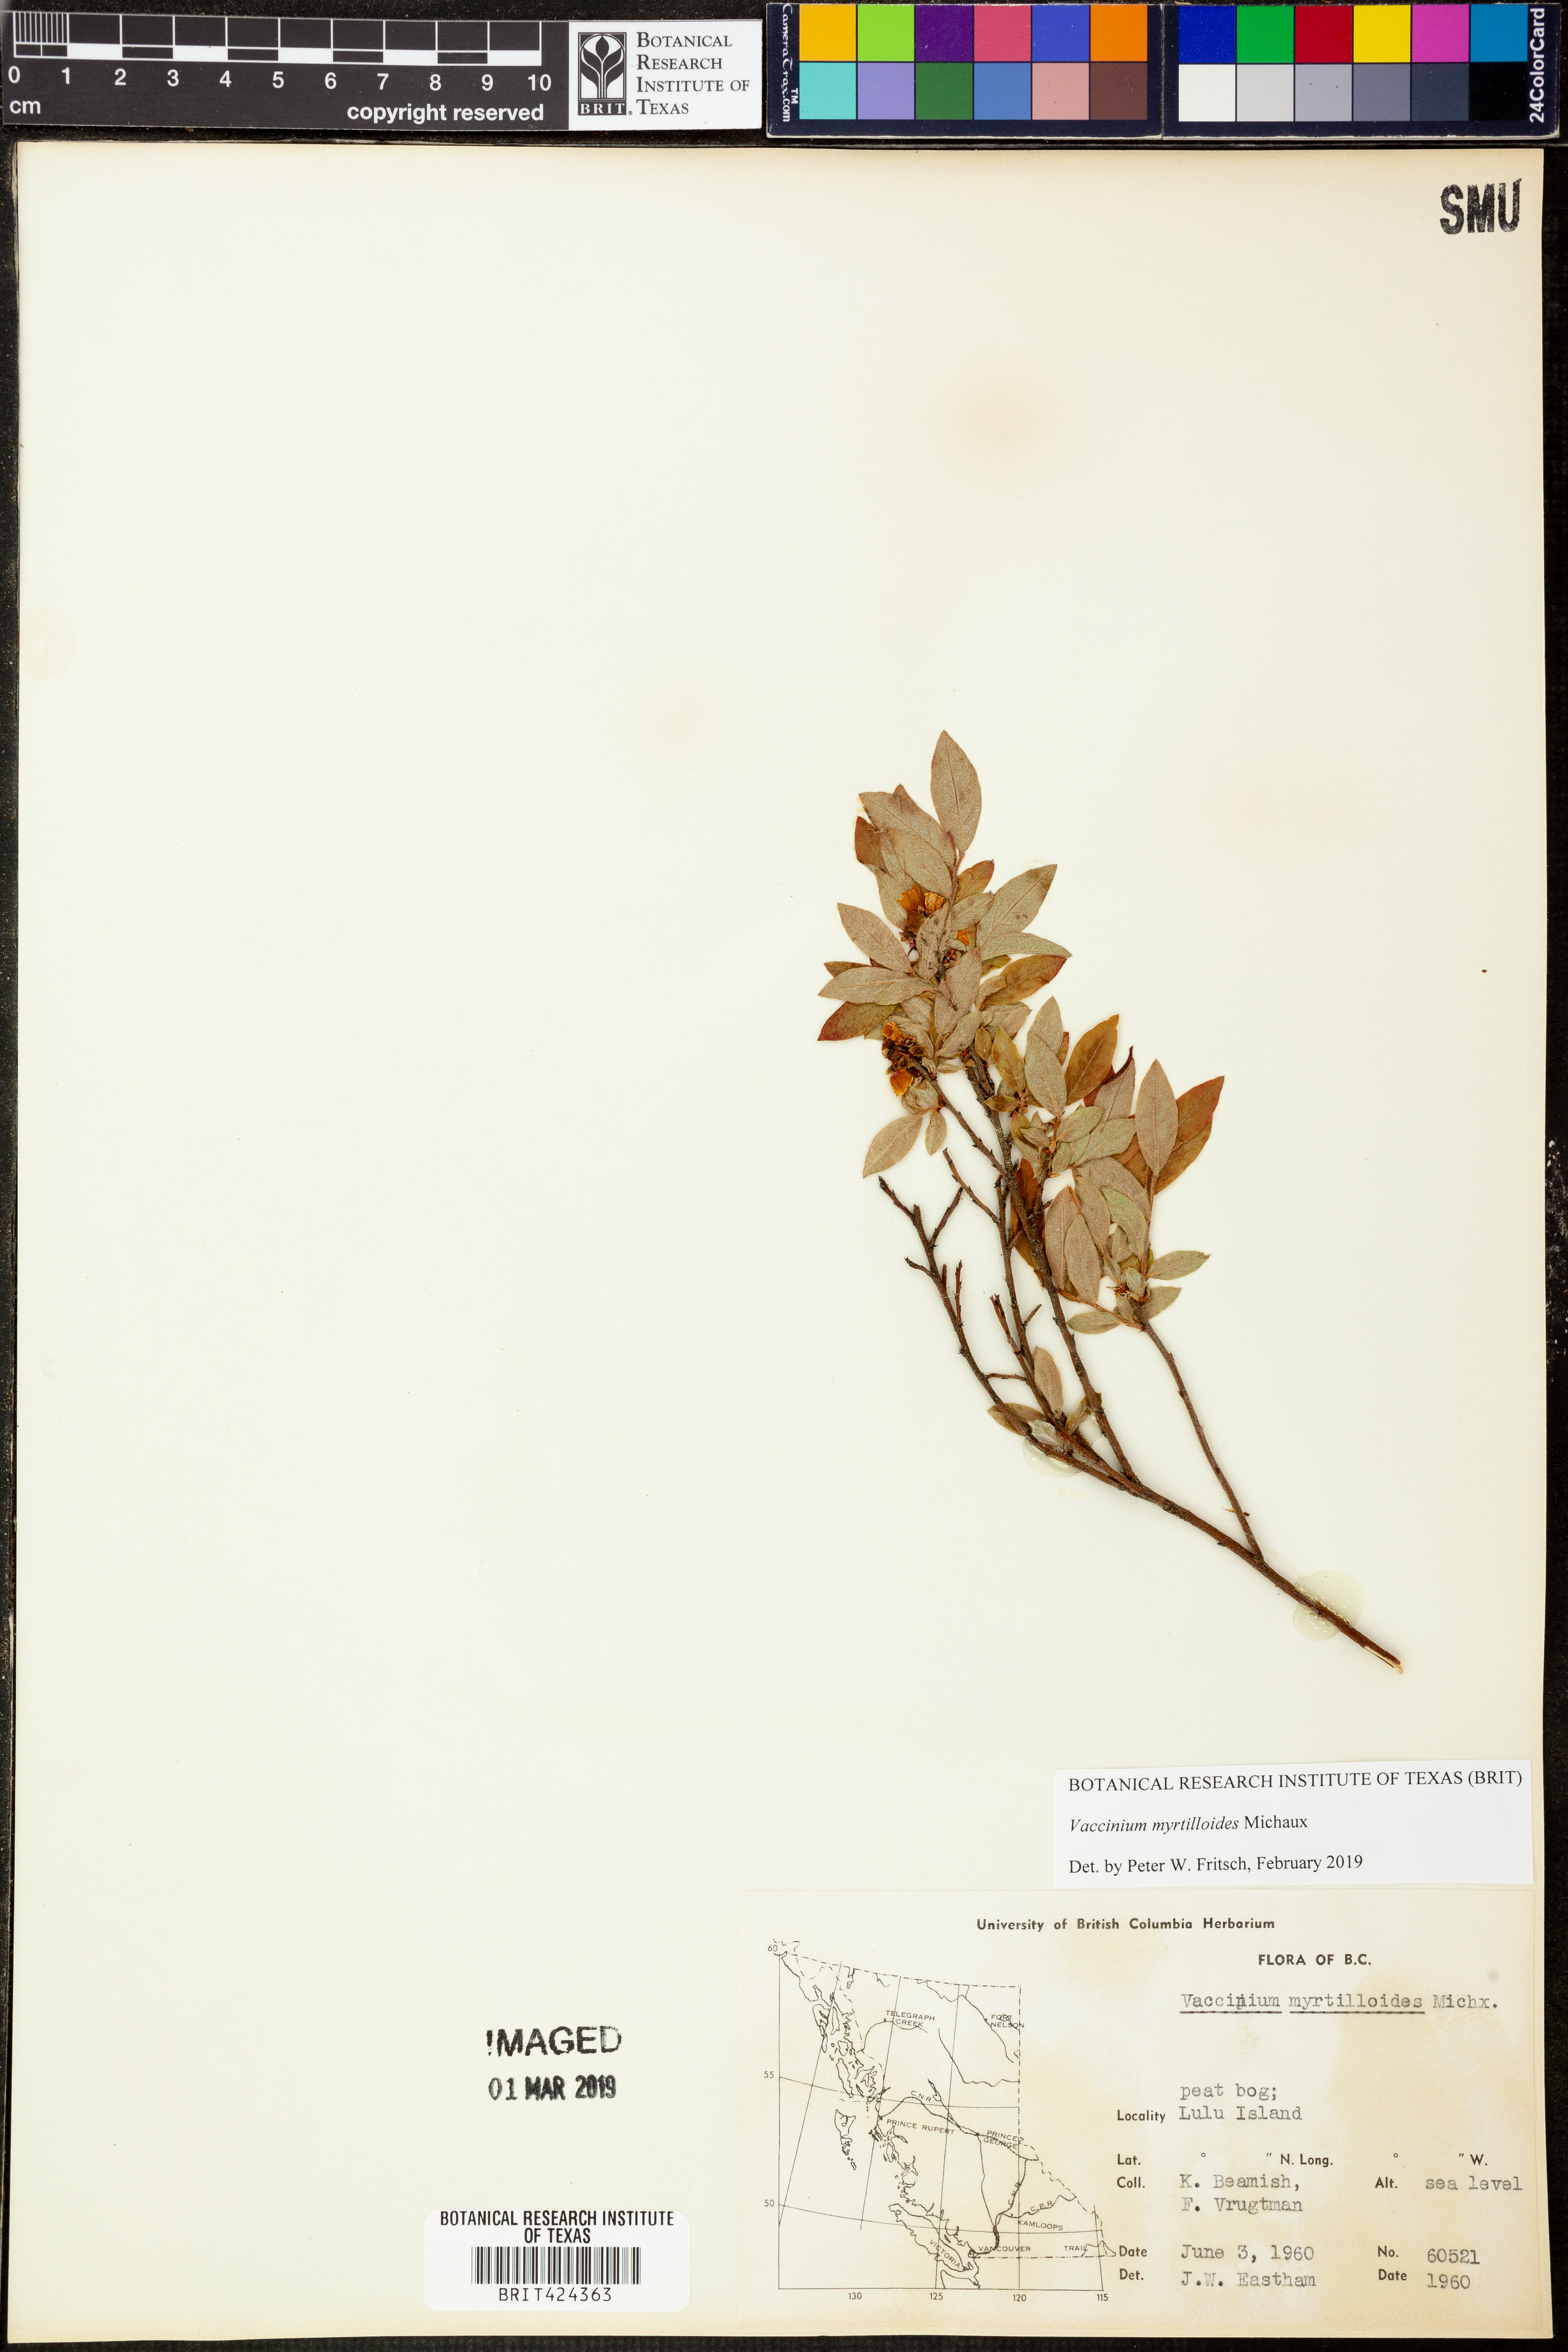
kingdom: Plantae
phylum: Tracheophyta
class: Magnoliopsida
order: Ericales
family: Ericaceae
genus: Vaccinium
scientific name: Vaccinium myrtilloides
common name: Canada blueberry
